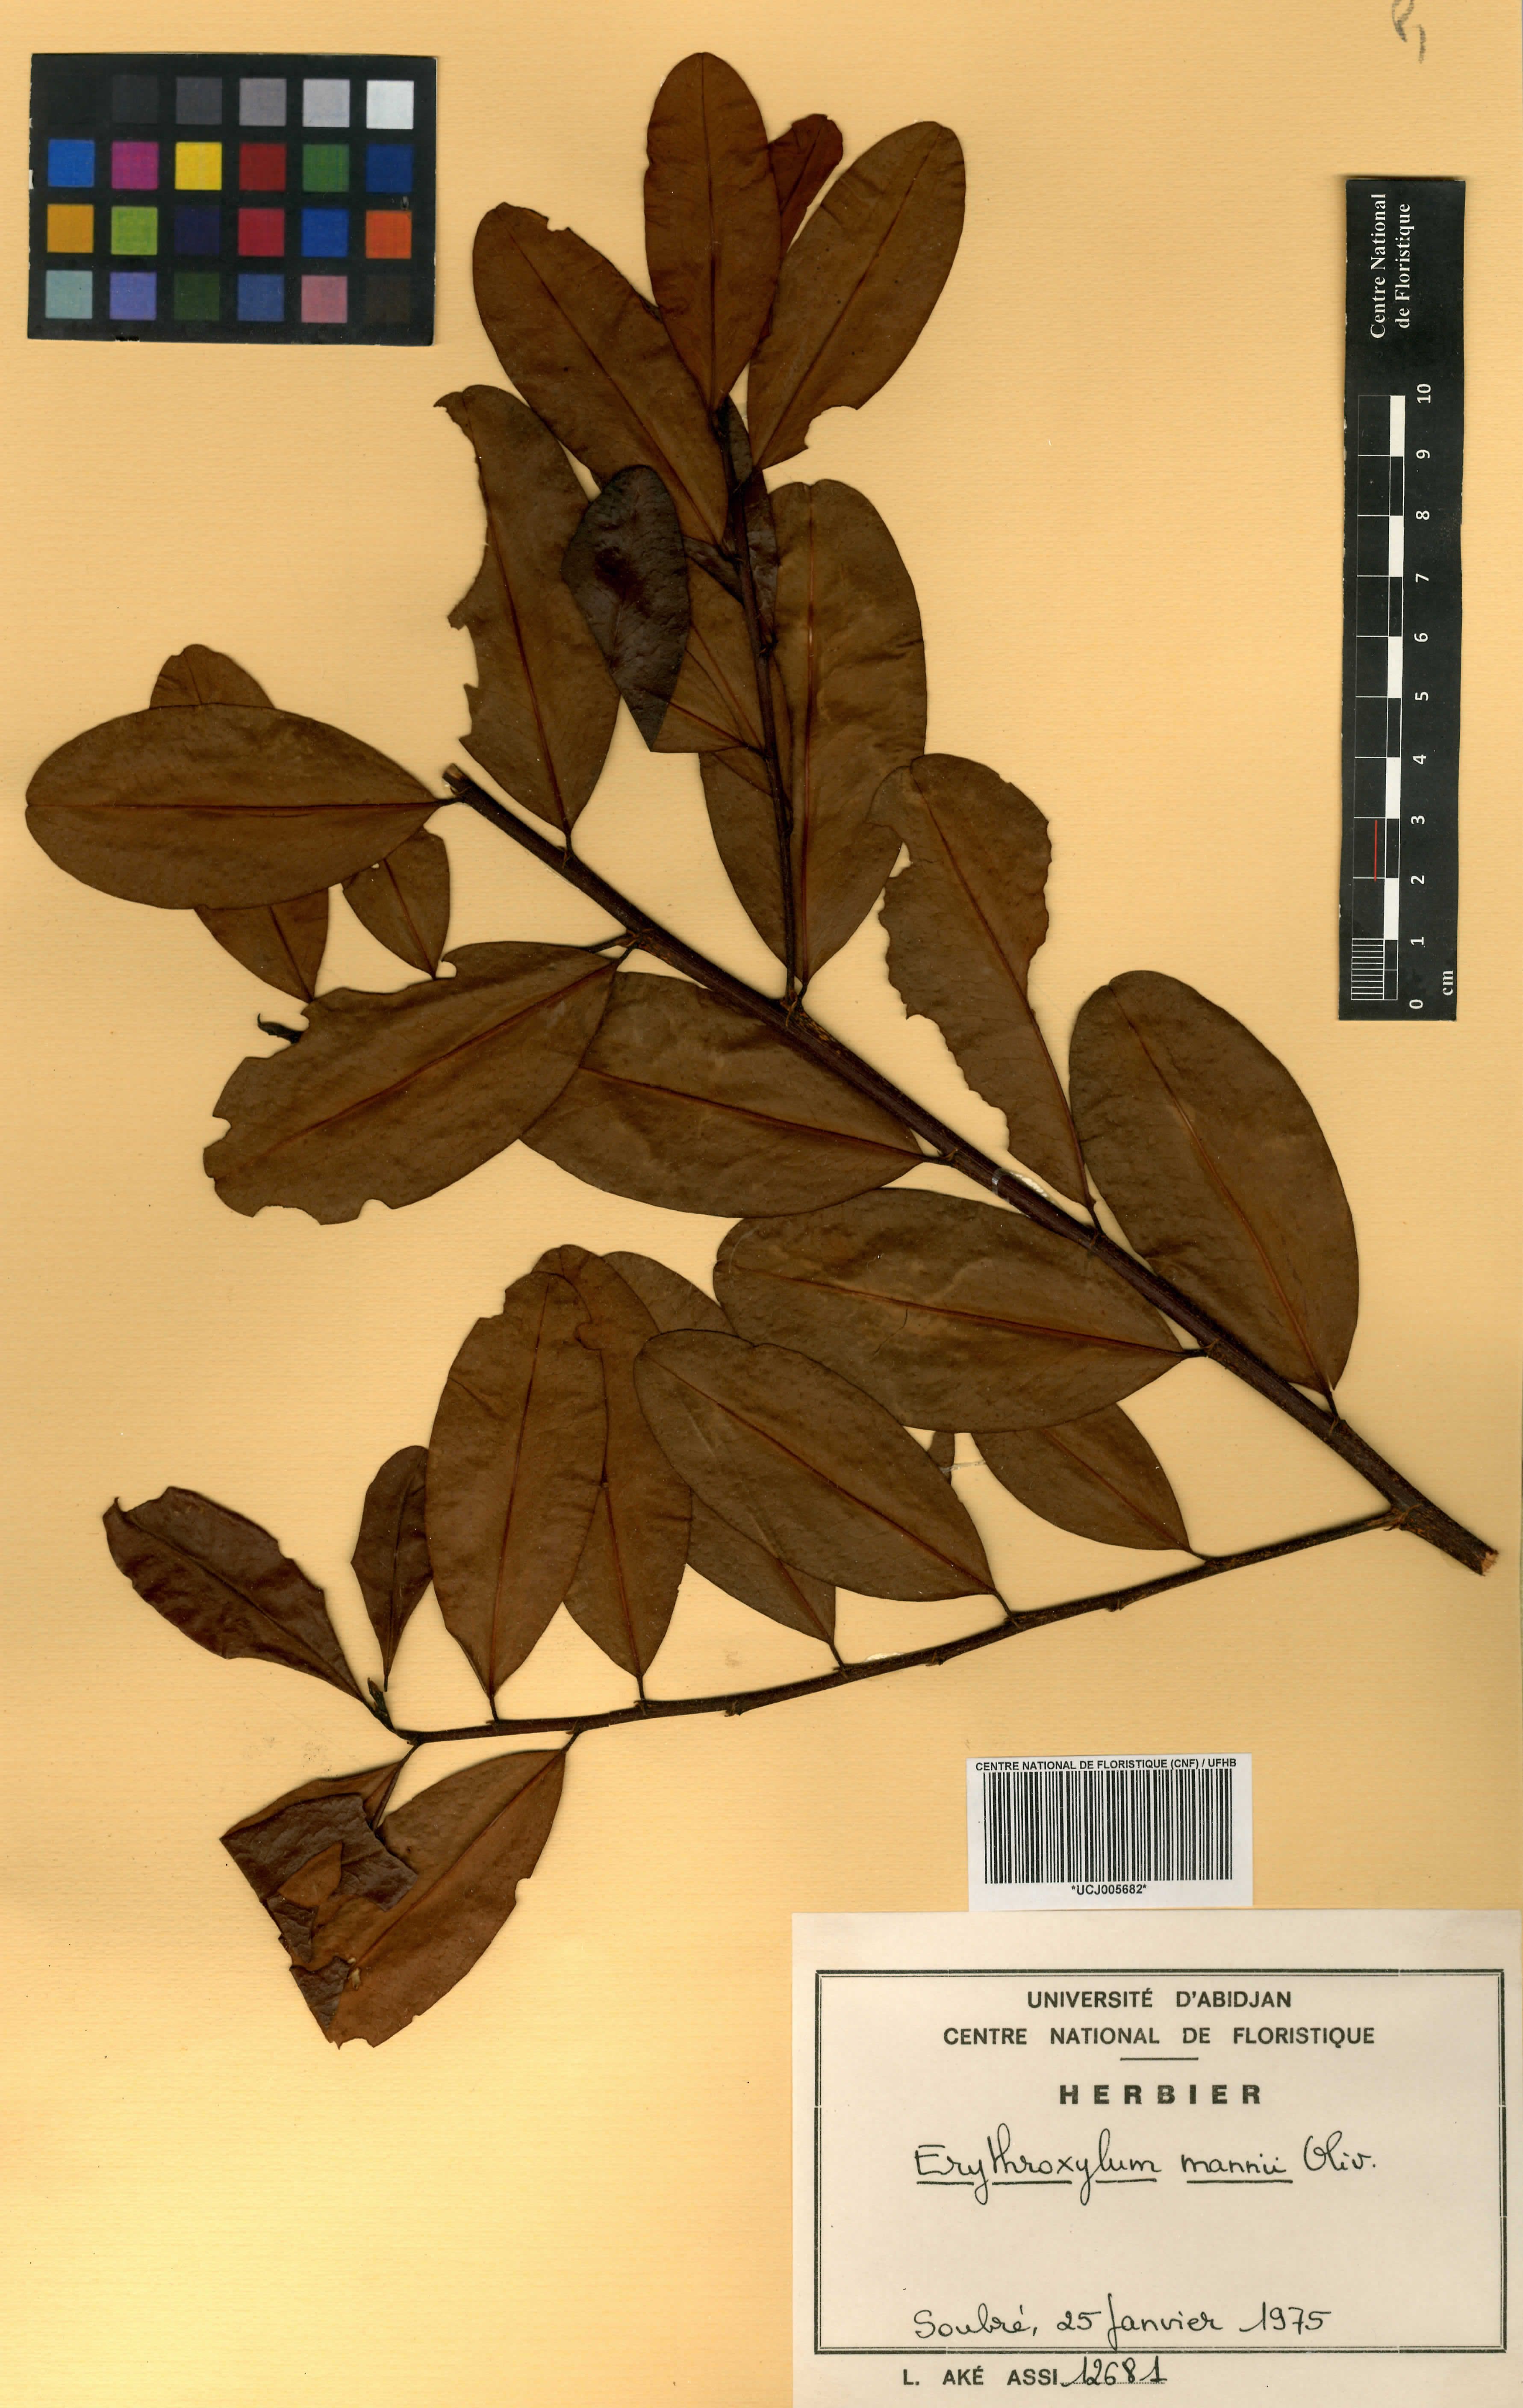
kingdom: Plantae
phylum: Tracheophyta
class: Magnoliopsida
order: Malpighiales
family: Erythroxylaceae
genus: Erythroxylum
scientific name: Erythroxylum mannii
